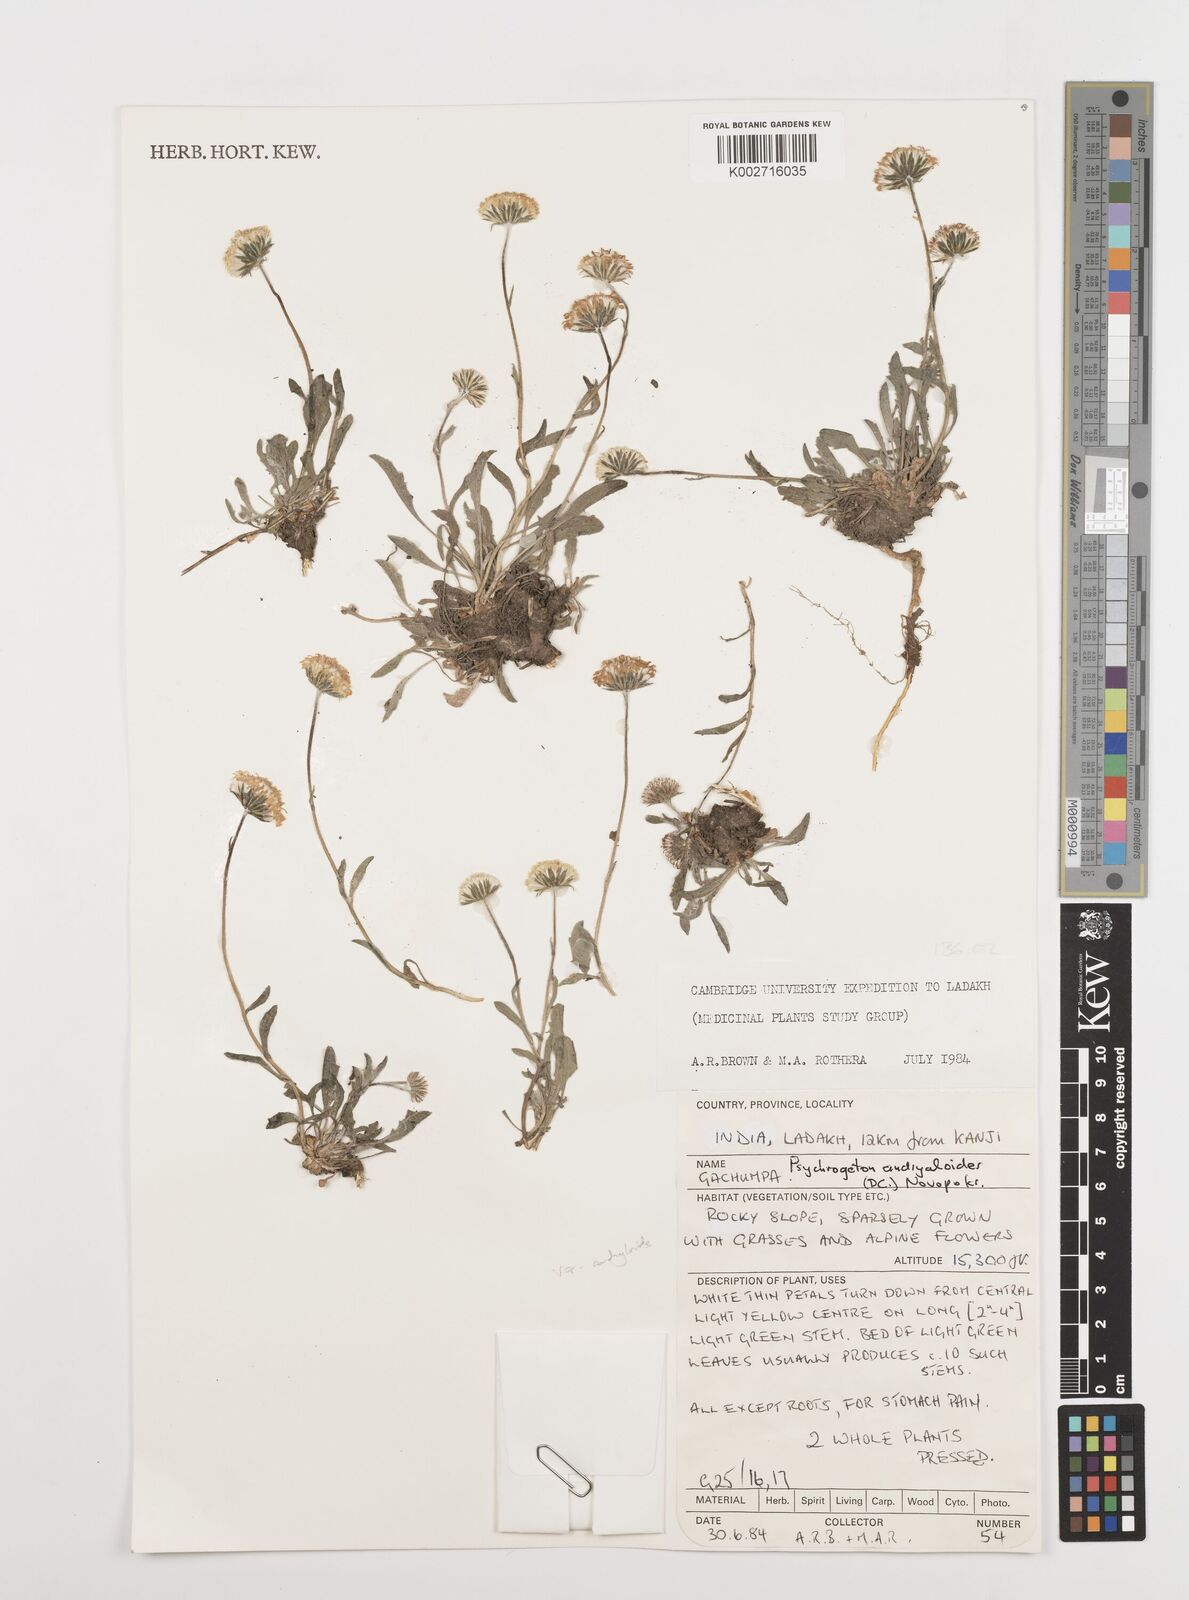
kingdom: Plantae
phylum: Tracheophyta
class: Magnoliopsida
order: Asterales
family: Asteraceae
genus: Psychrogeton
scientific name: Psychrogeton andryaloides
